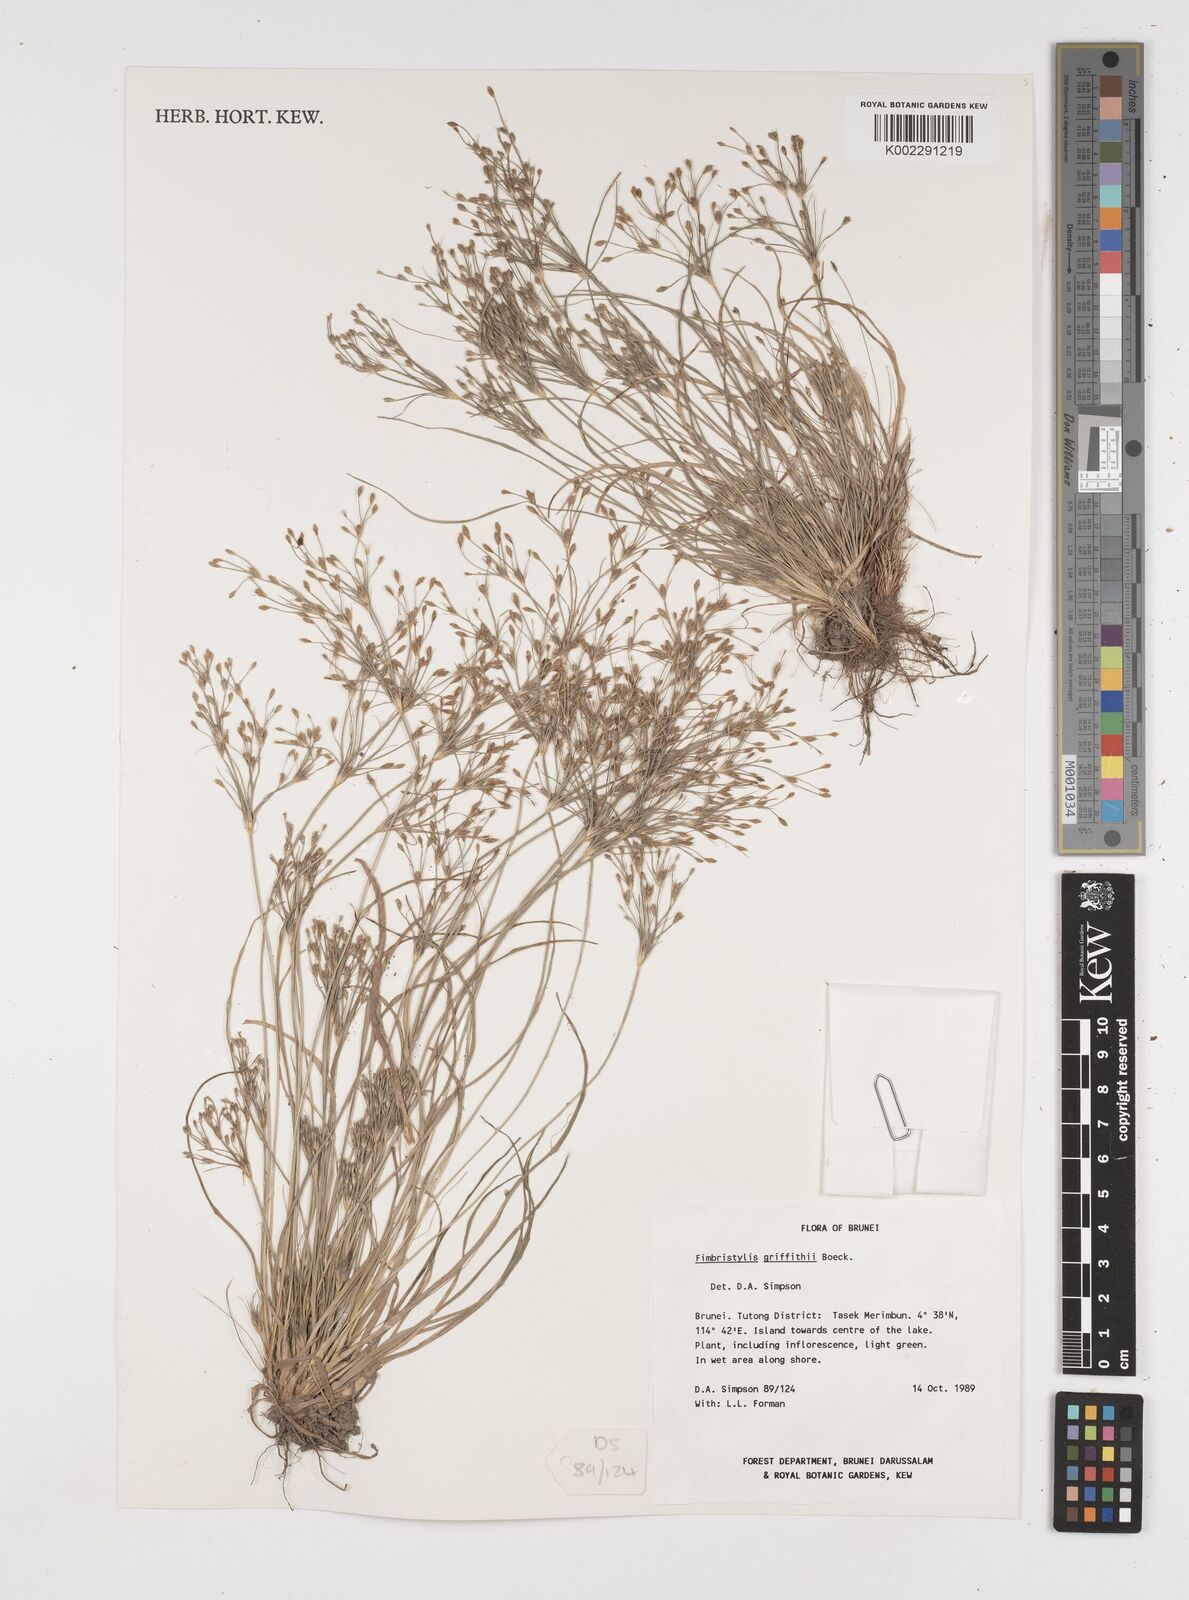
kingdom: Plantae
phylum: Tracheophyta
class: Liliopsida
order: Poales
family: Cyperaceae
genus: Fimbristylis
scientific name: Fimbristylis griffithii
